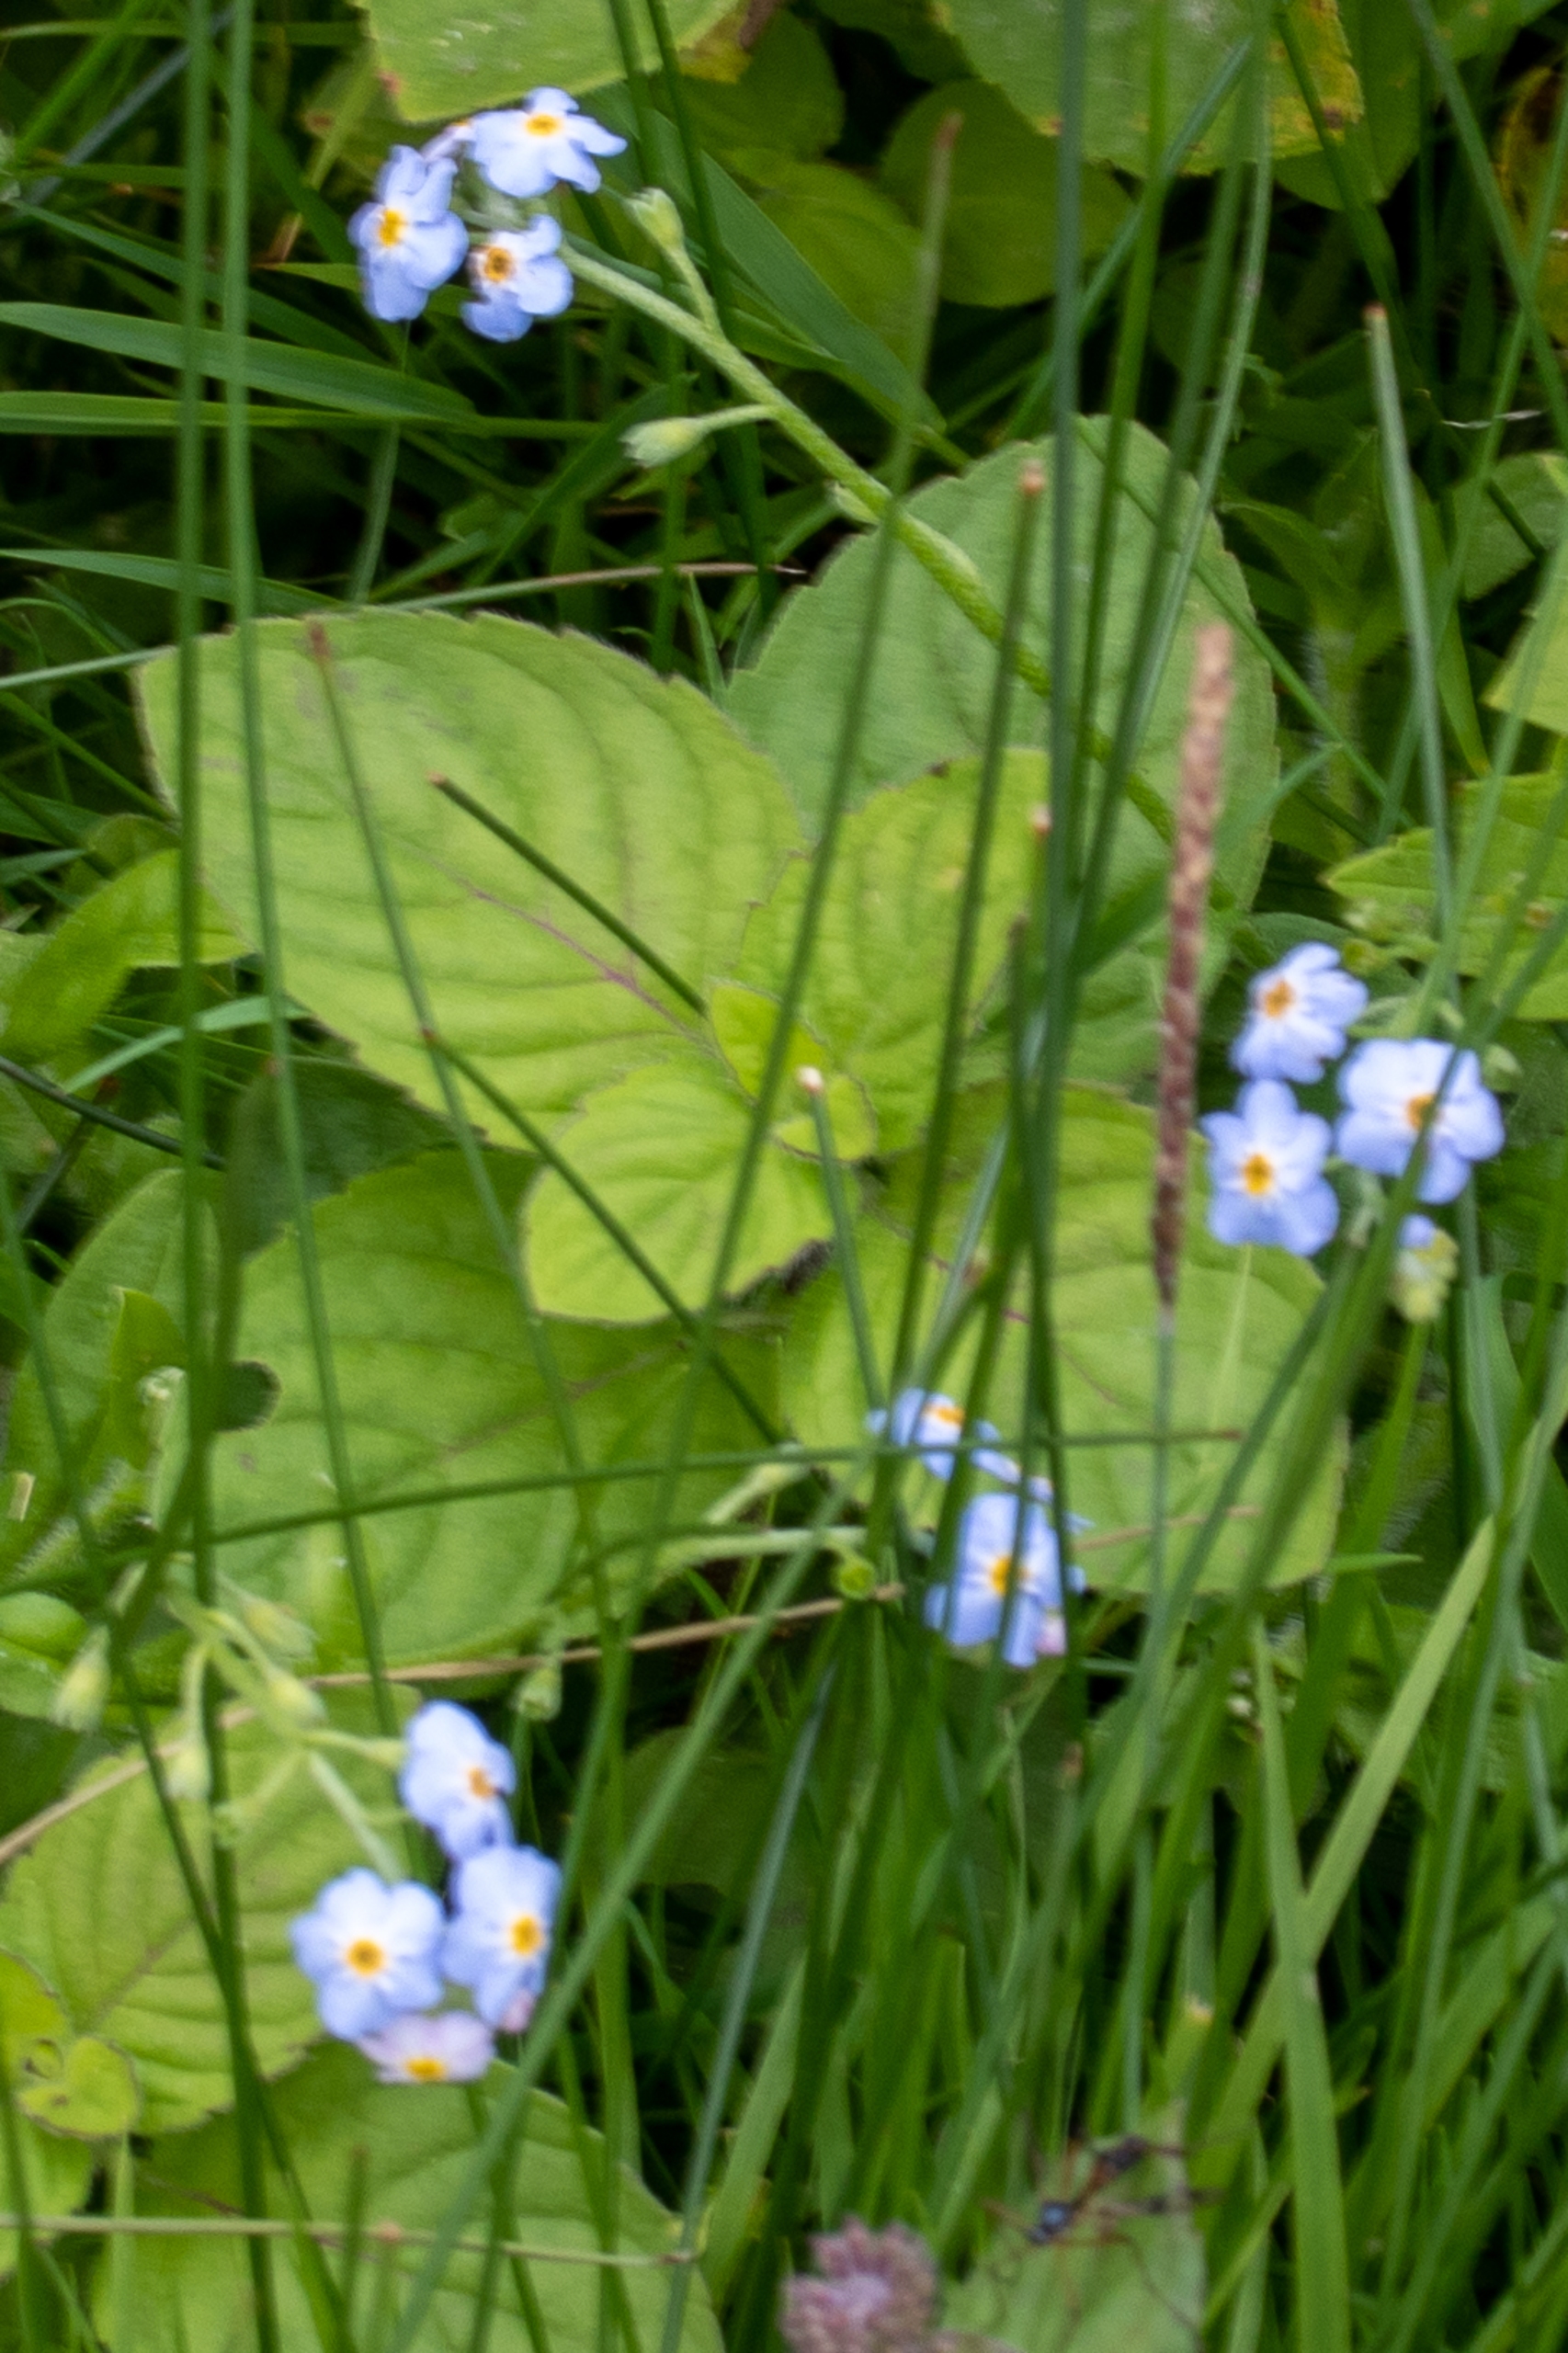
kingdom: Plantae
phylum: Tracheophyta
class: Magnoliopsida
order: Boraginales
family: Boraginaceae
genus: Myosotis
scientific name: Myosotis scorpioides
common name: Eng-forglemmigej
